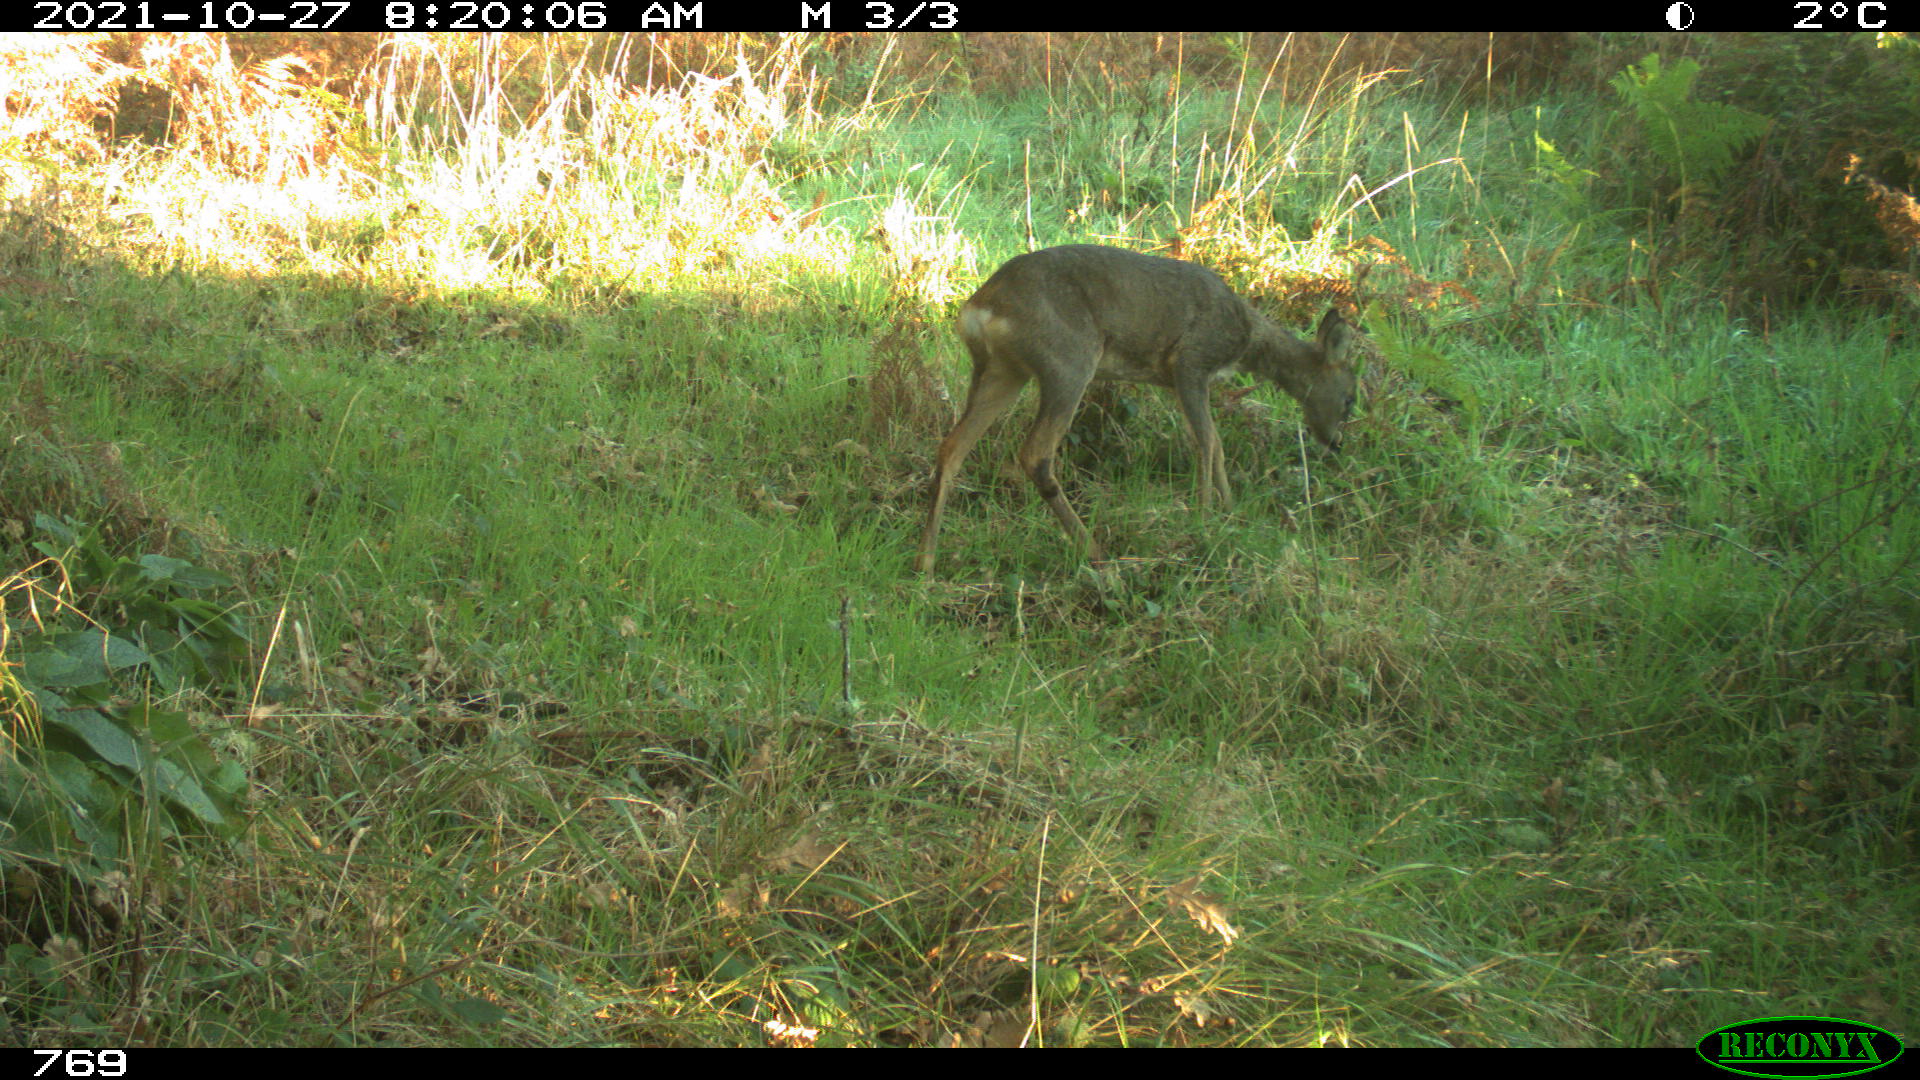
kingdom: Animalia
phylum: Chordata
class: Mammalia
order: Artiodactyla
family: Cervidae
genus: Capreolus
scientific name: Capreolus capreolus
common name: Western roe deer
